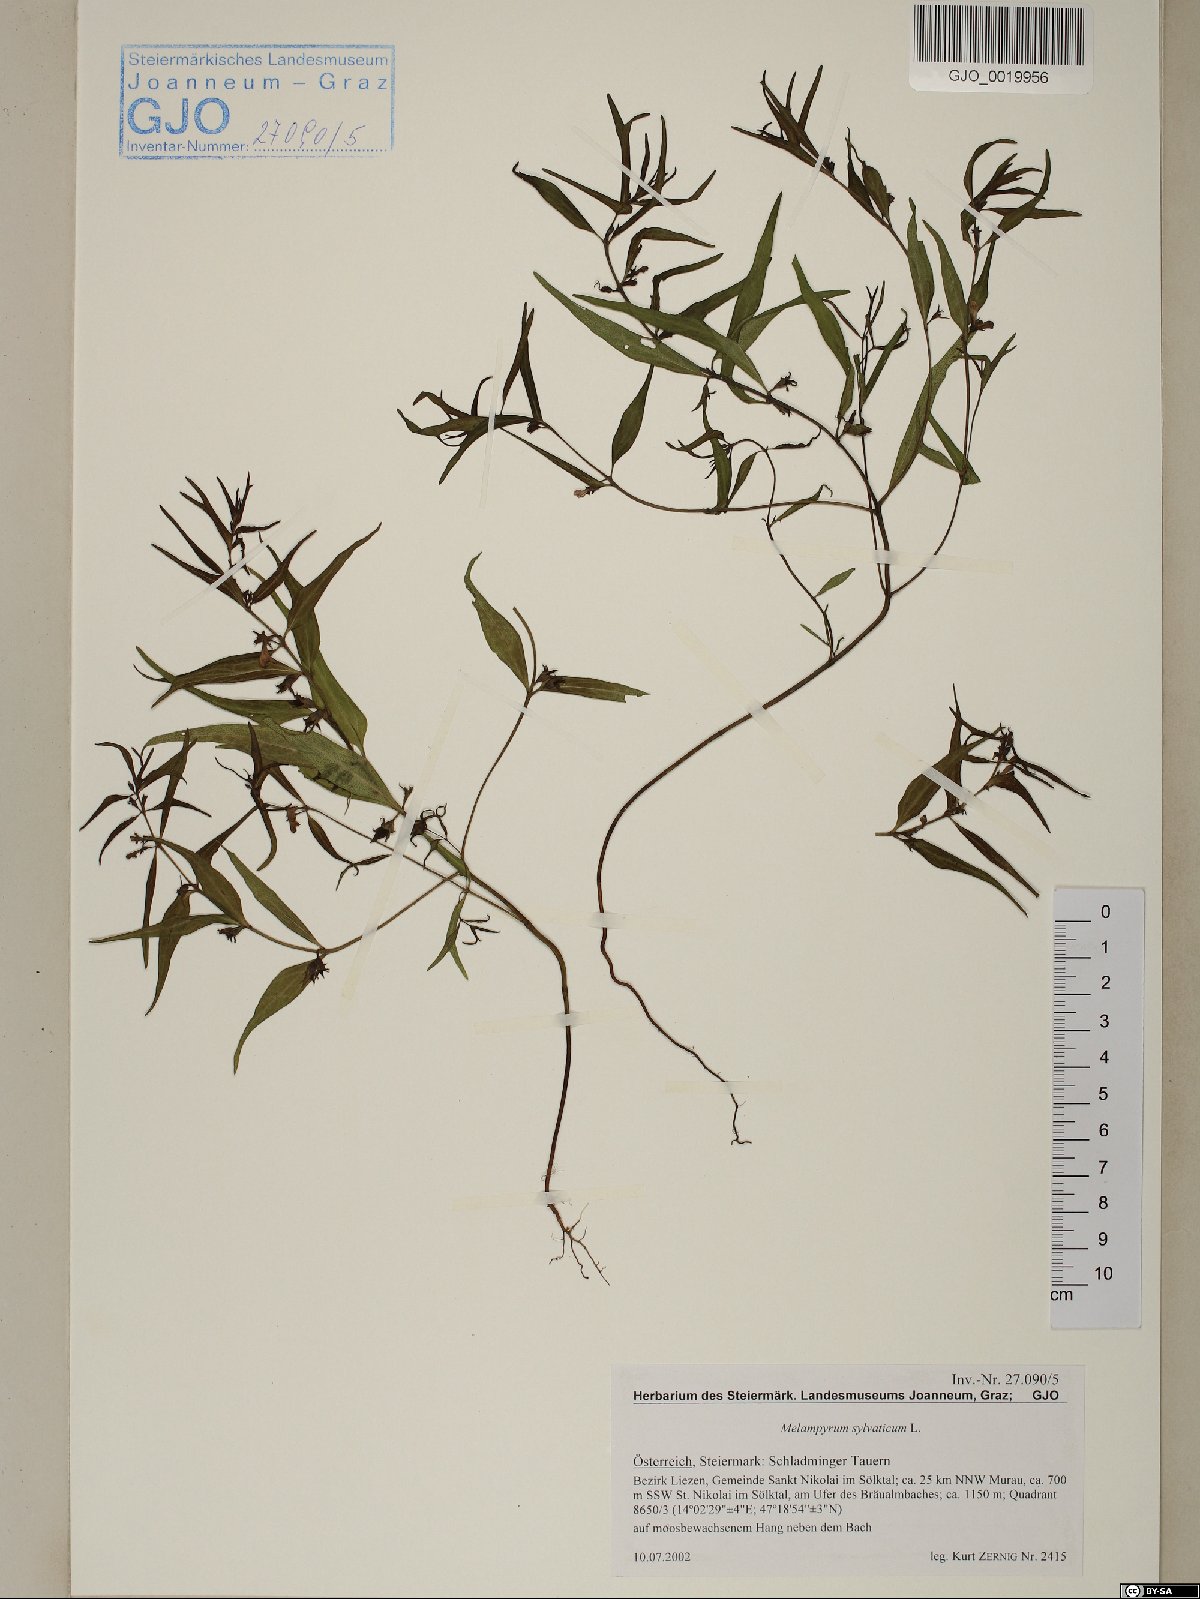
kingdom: Plantae
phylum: Tracheophyta
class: Magnoliopsida
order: Lamiales
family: Orobanchaceae
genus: Melampyrum
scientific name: Melampyrum sylvaticum
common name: Small cow-wheat
